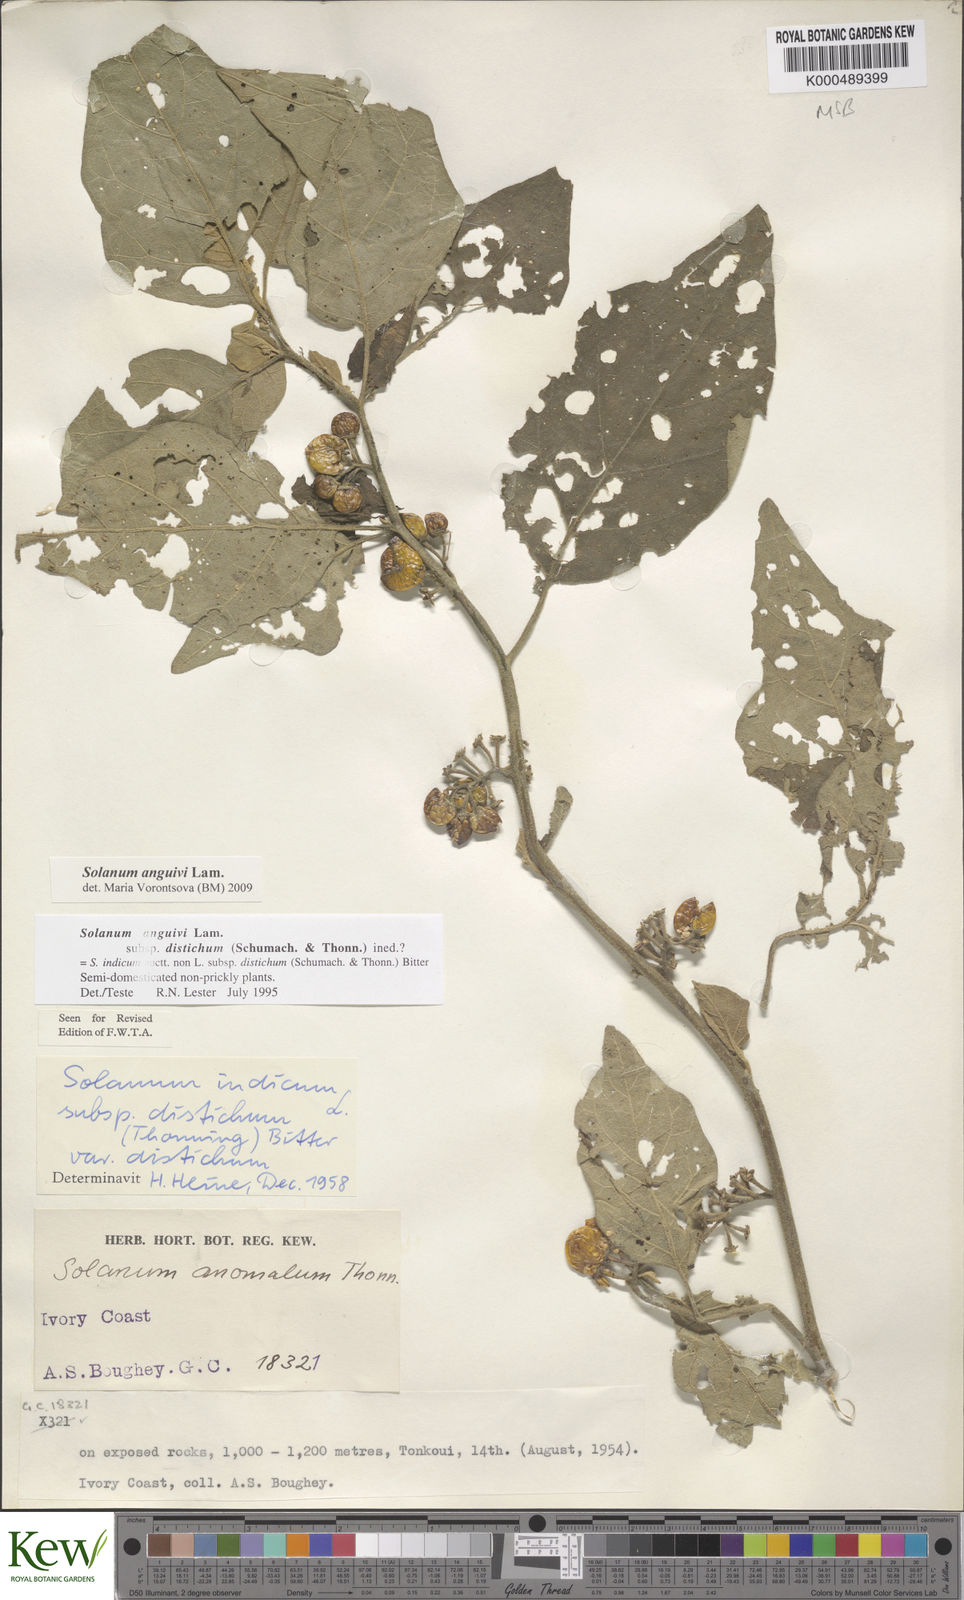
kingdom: Plantae
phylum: Tracheophyta
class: Magnoliopsida
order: Solanales
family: Solanaceae
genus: Solanum
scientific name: Solanum anguivi
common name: Forest bitterberry
